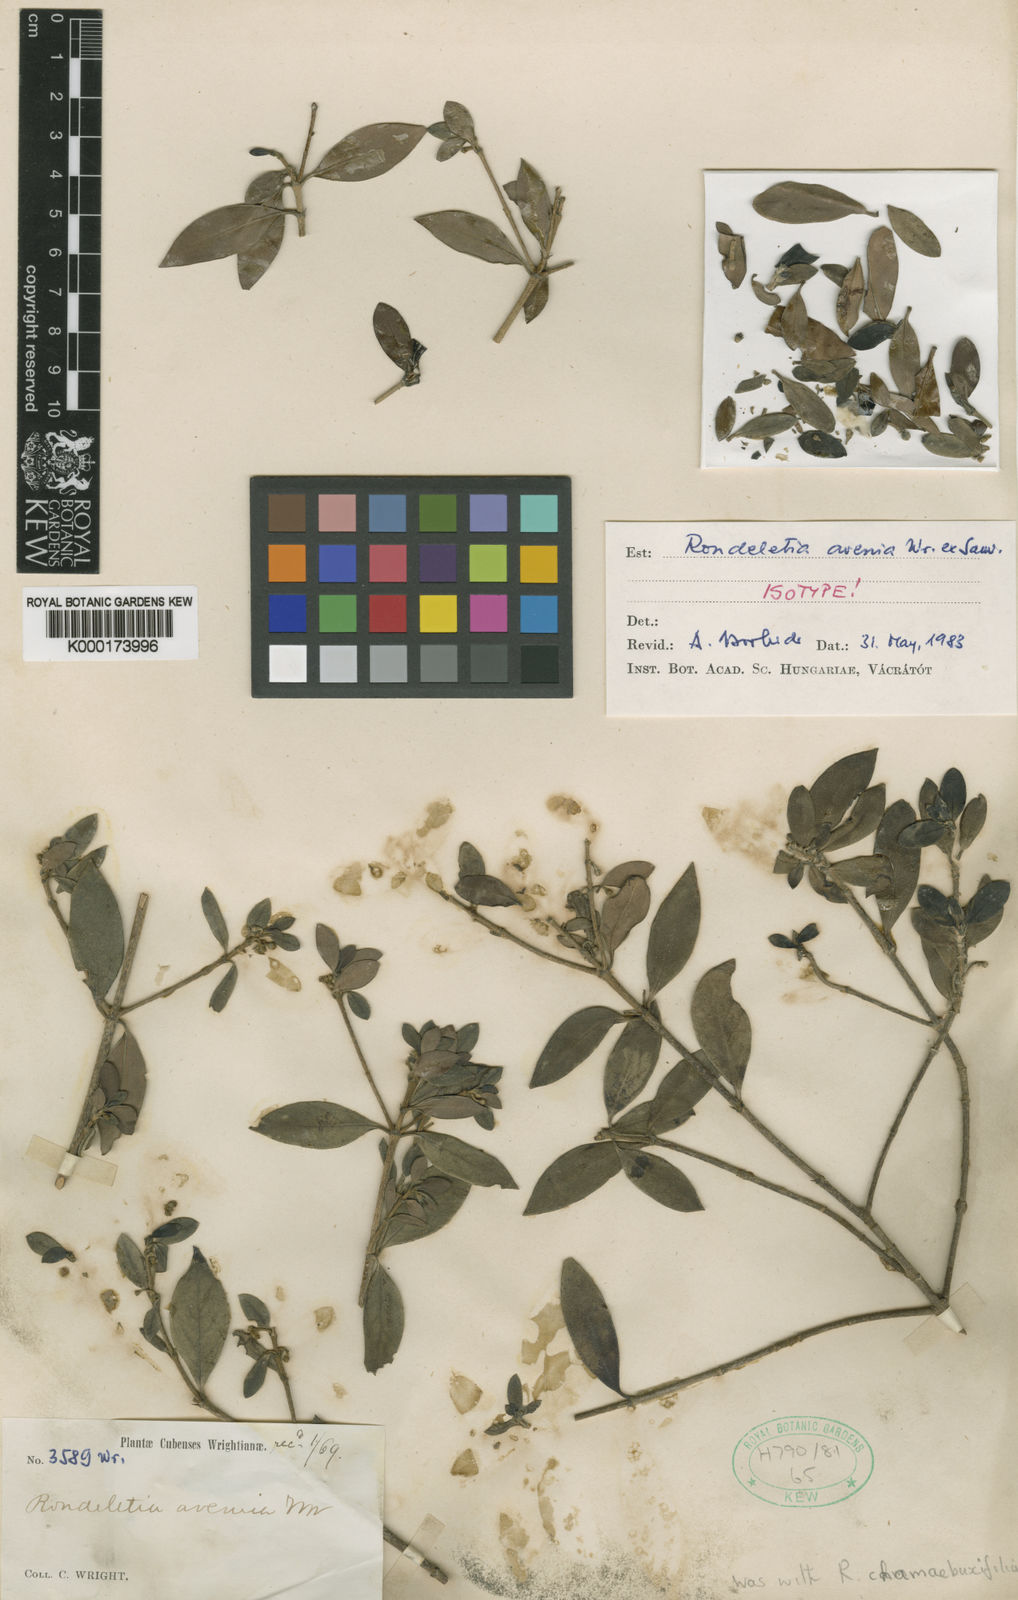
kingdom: Plantae
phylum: Tracheophyta
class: Magnoliopsida
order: Gentianales
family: Rubiaceae
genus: Rondeletia
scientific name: Rondeletia chamaebuxifolia
